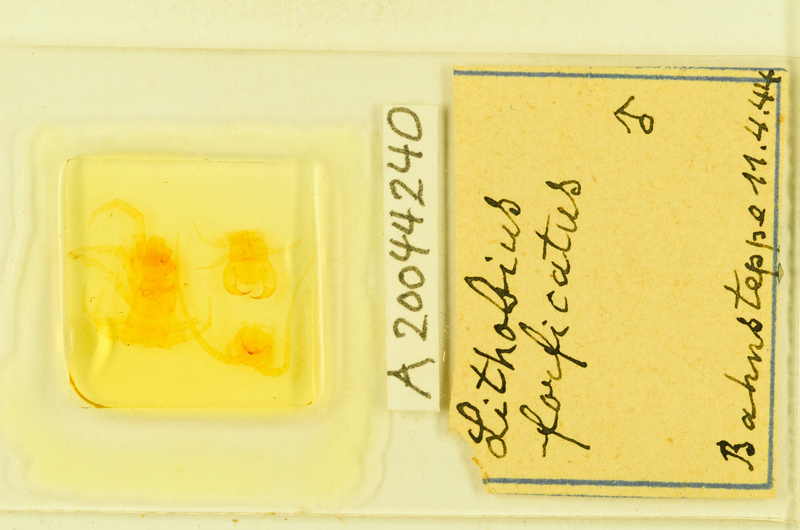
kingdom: Animalia
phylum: Arthropoda
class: Chilopoda
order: Lithobiomorpha
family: Lithobiidae
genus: Lithobius
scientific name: Lithobius forficatus
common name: Centipede
